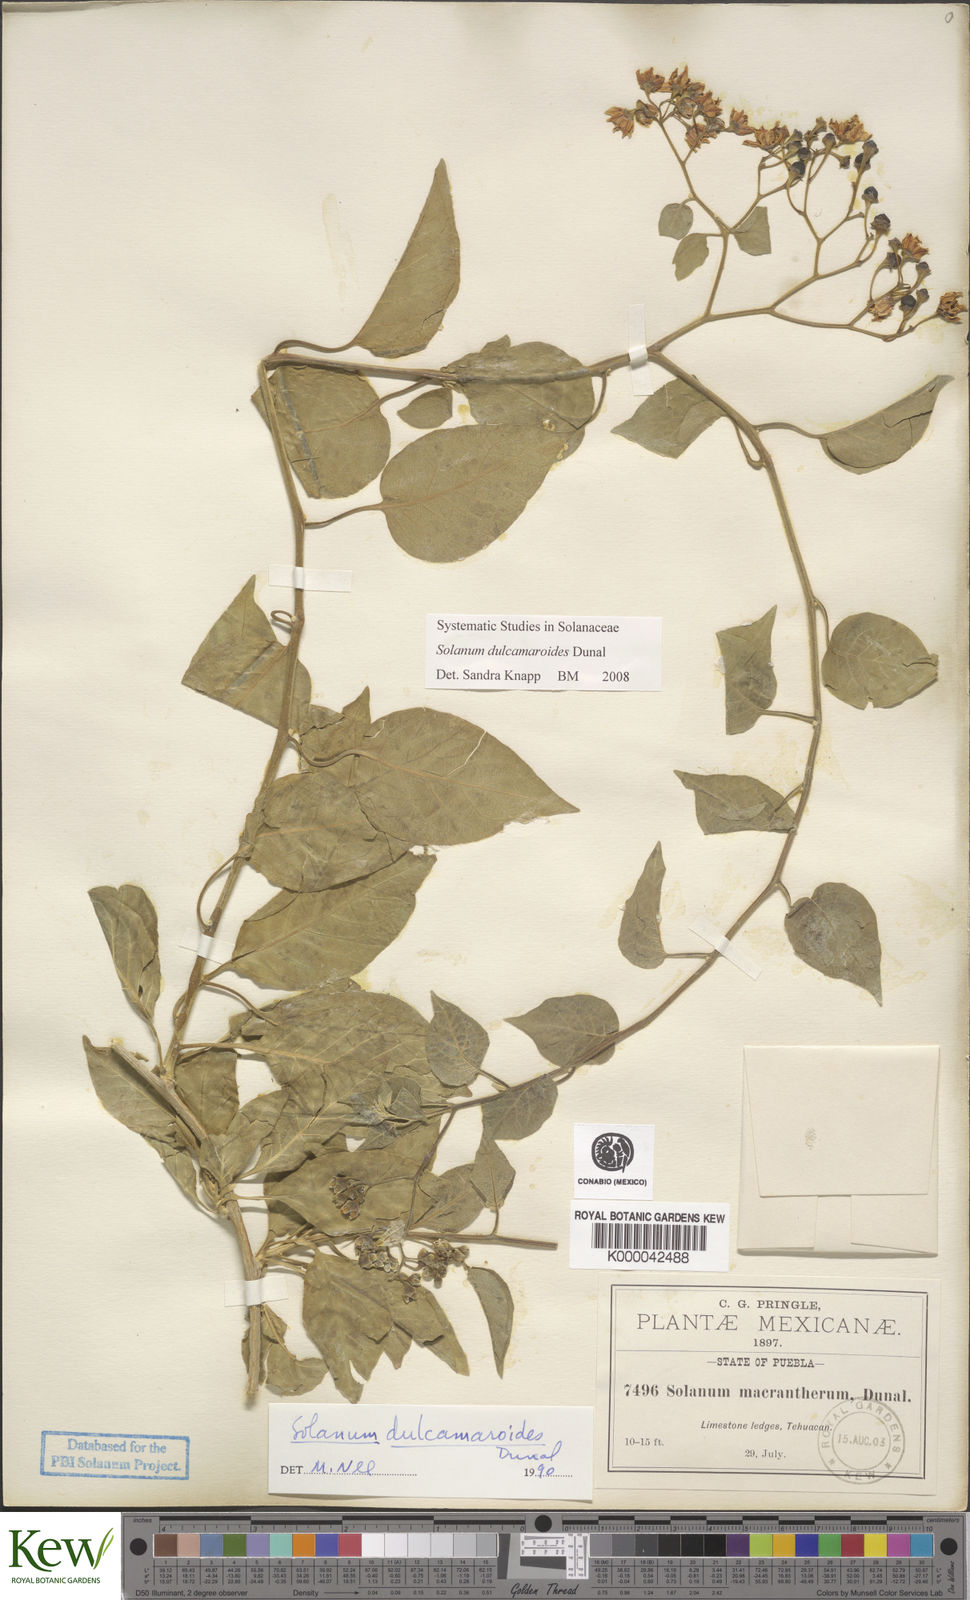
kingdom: Plantae
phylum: Tracheophyta
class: Magnoliopsida
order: Solanales
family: Solanaceae
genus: Solanum
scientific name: Solanum dulcamaroides
